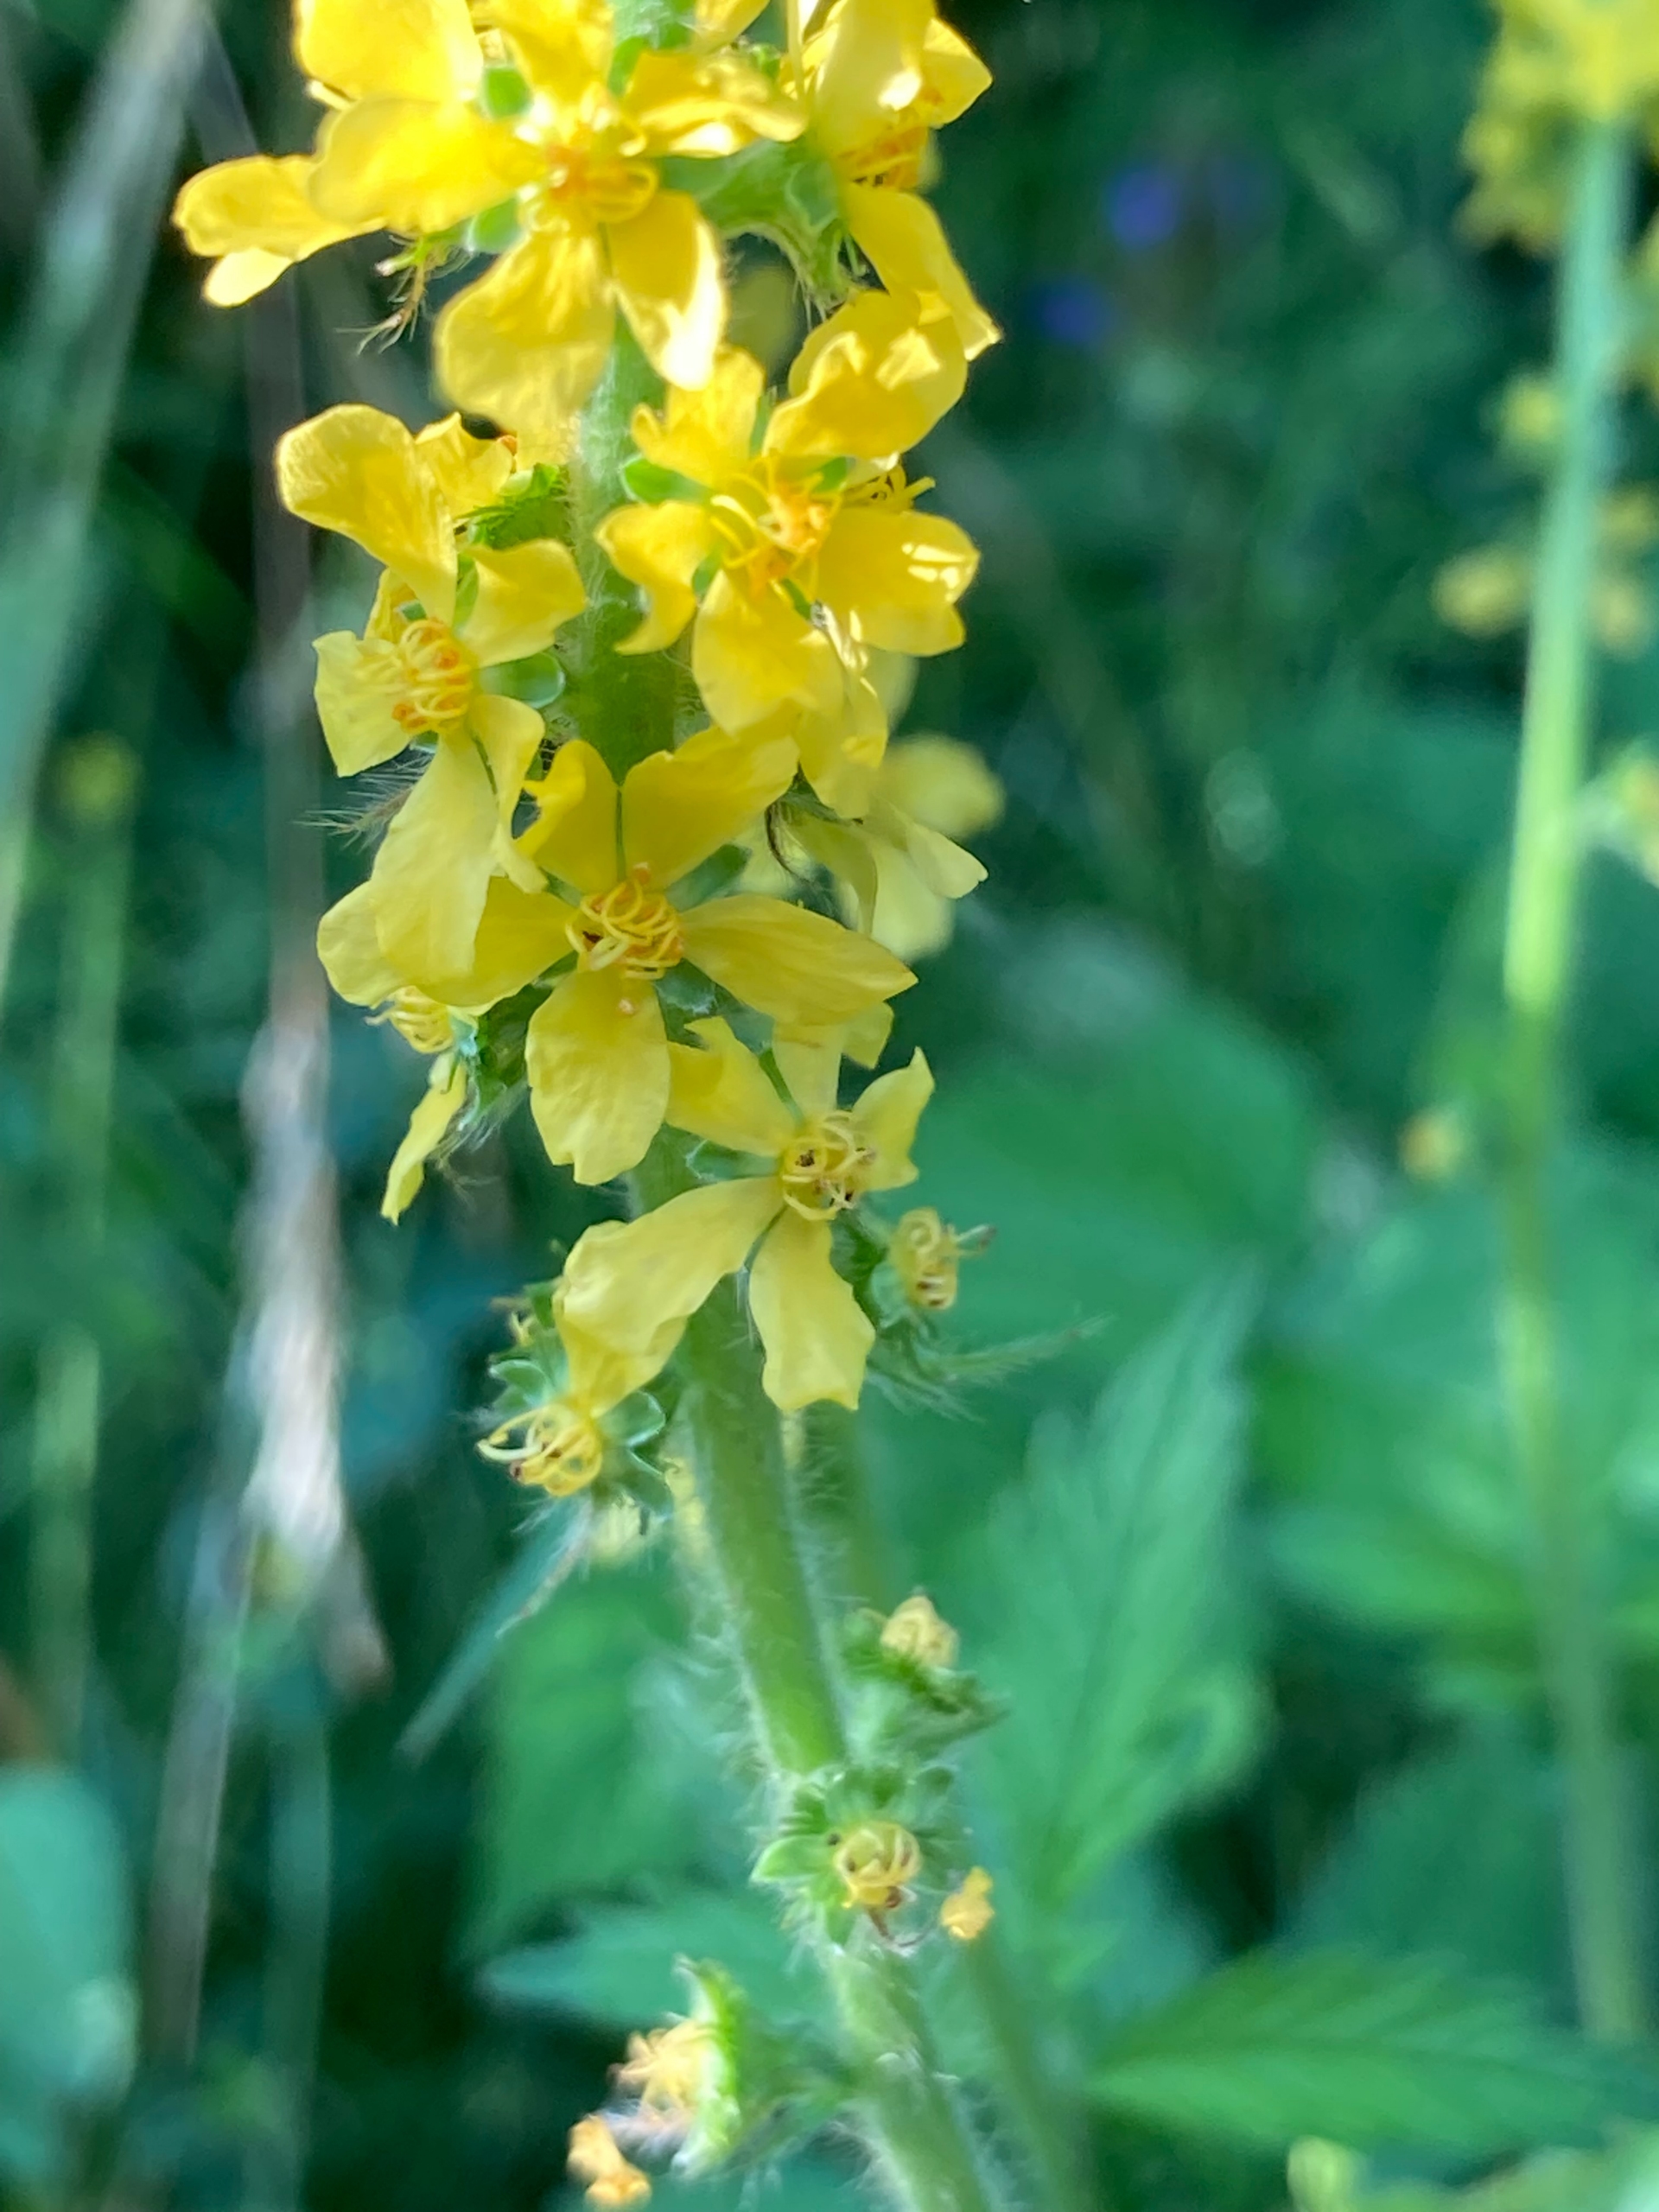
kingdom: Plantae
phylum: Tracheophyta
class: Magnoliopsida
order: Rosales
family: Rosaceae
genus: Agrimonia
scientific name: Agrimonia
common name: Agermåneslægten
